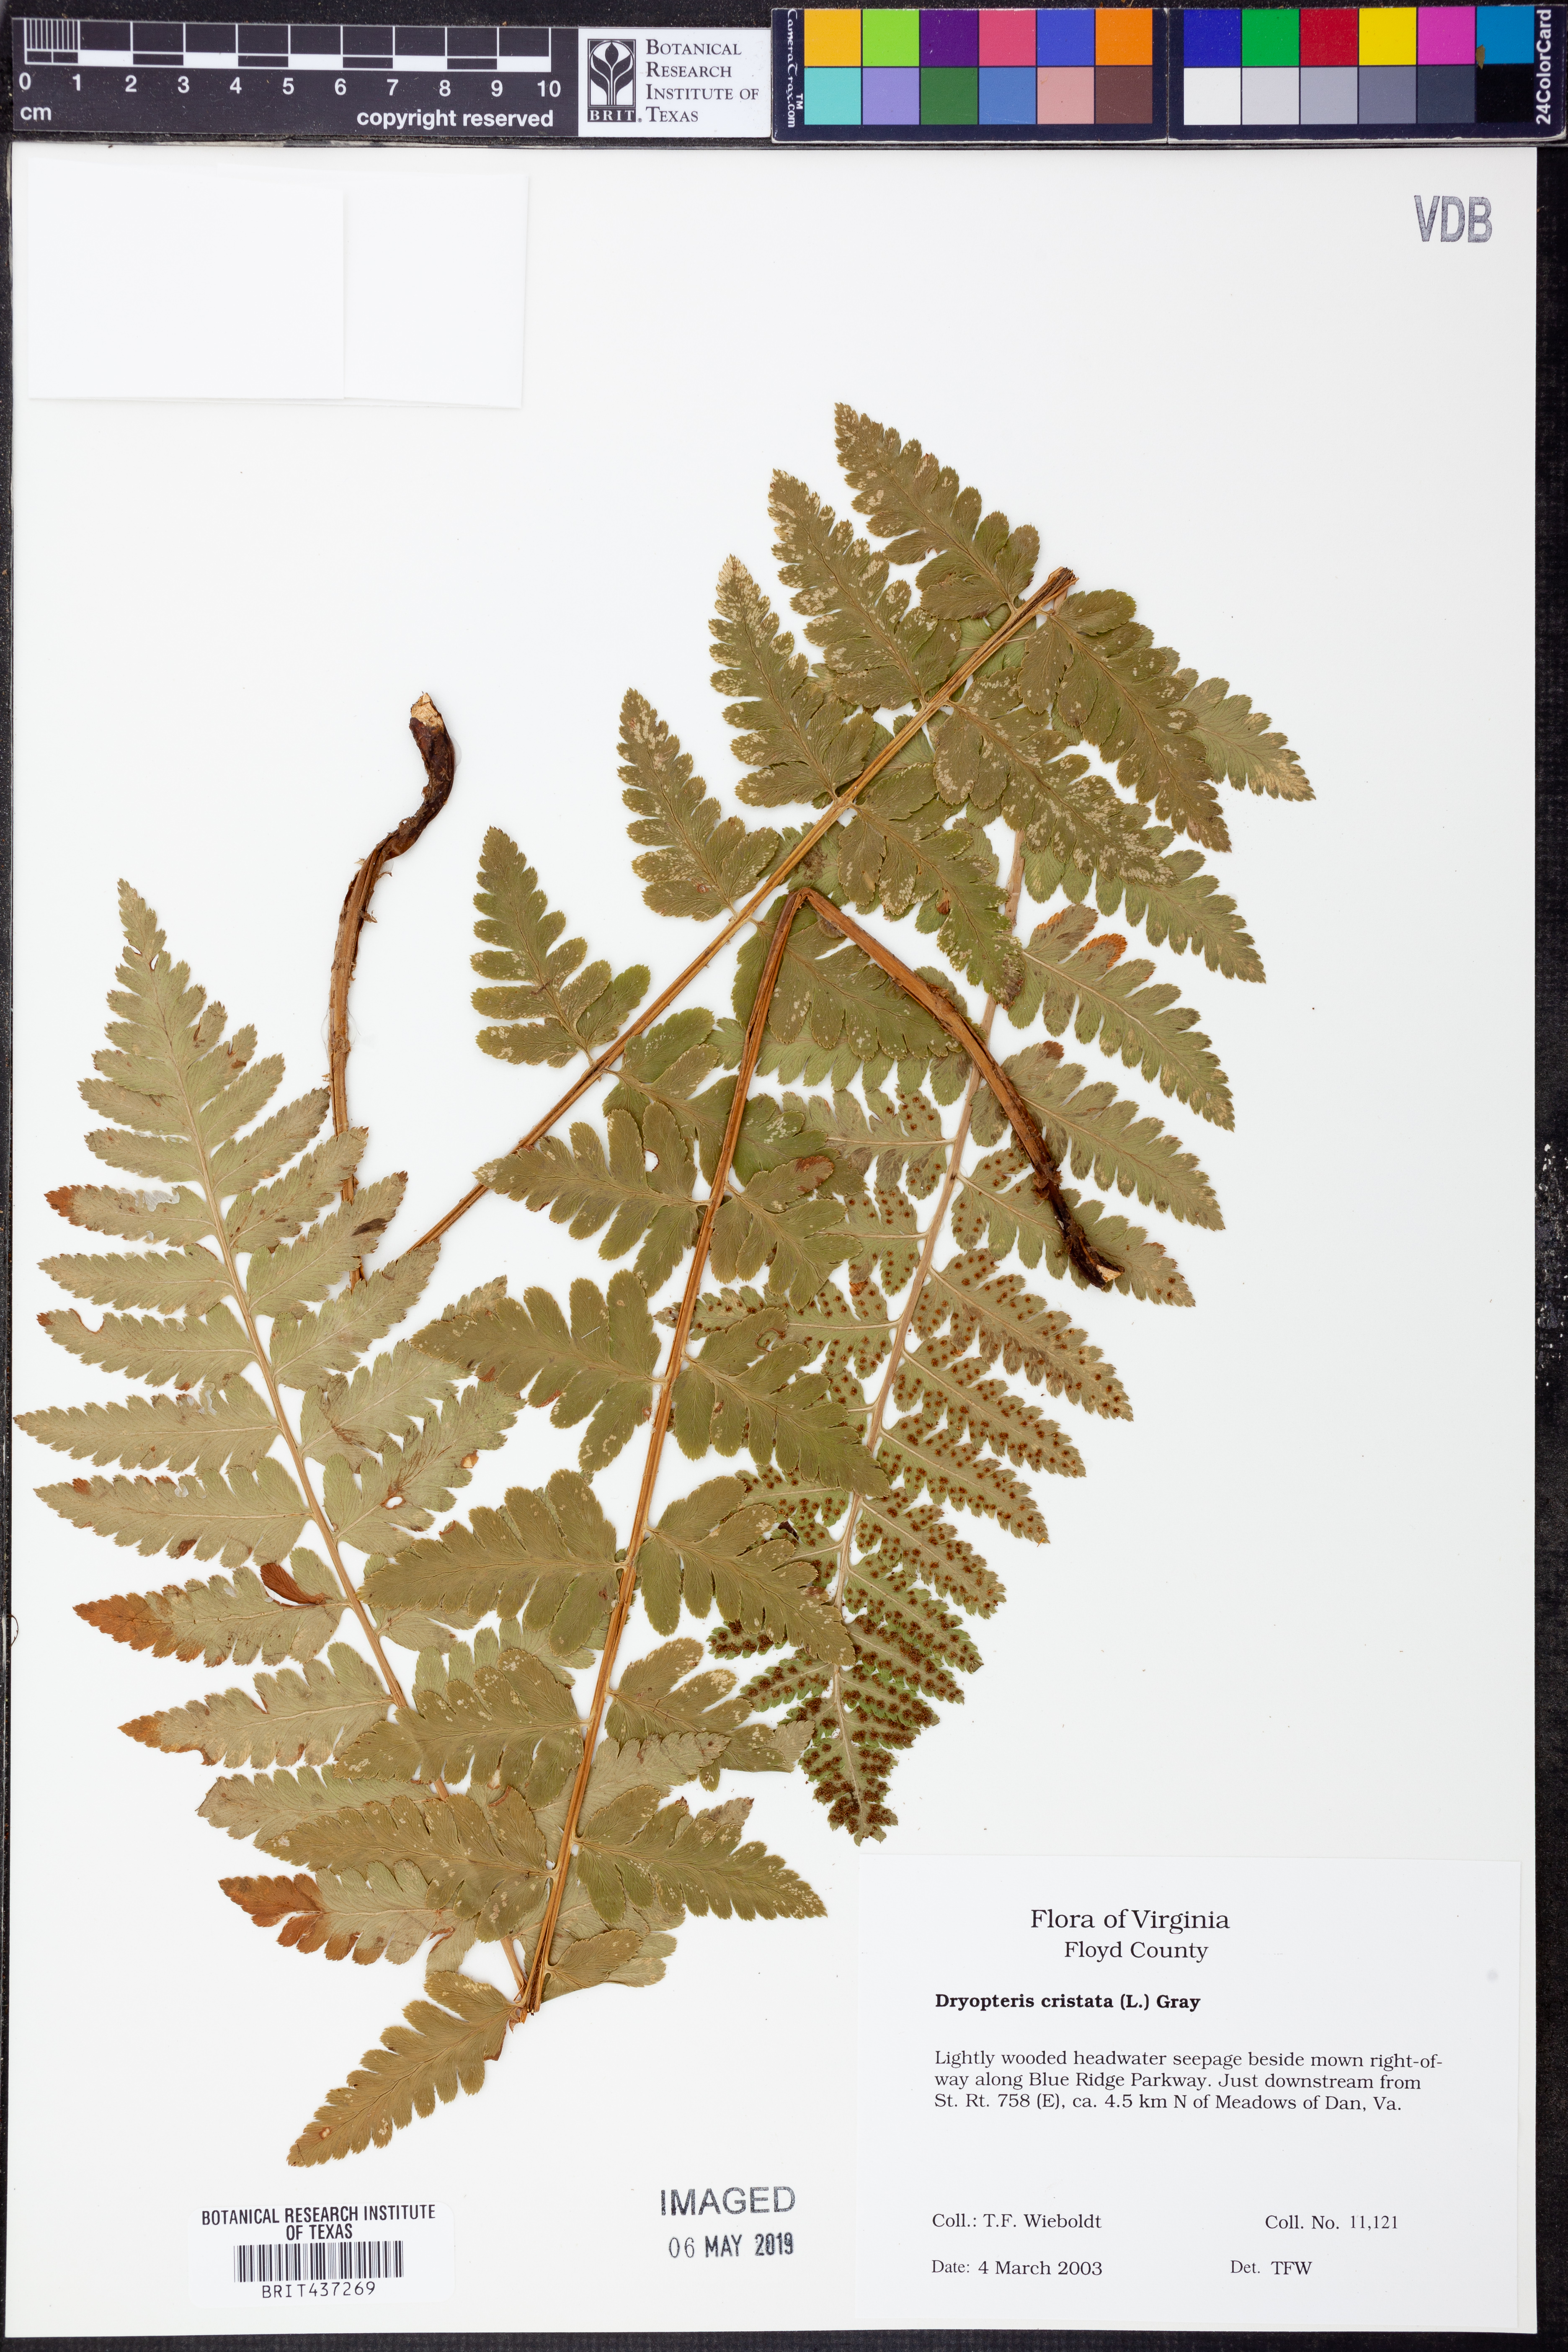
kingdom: Plantae
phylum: Tracheophyta
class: Polypodiopsida
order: Polypodiales
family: Dryopteridaceae
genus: Dryopteris
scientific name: Dryopteris cristata
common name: Crested wood fern
